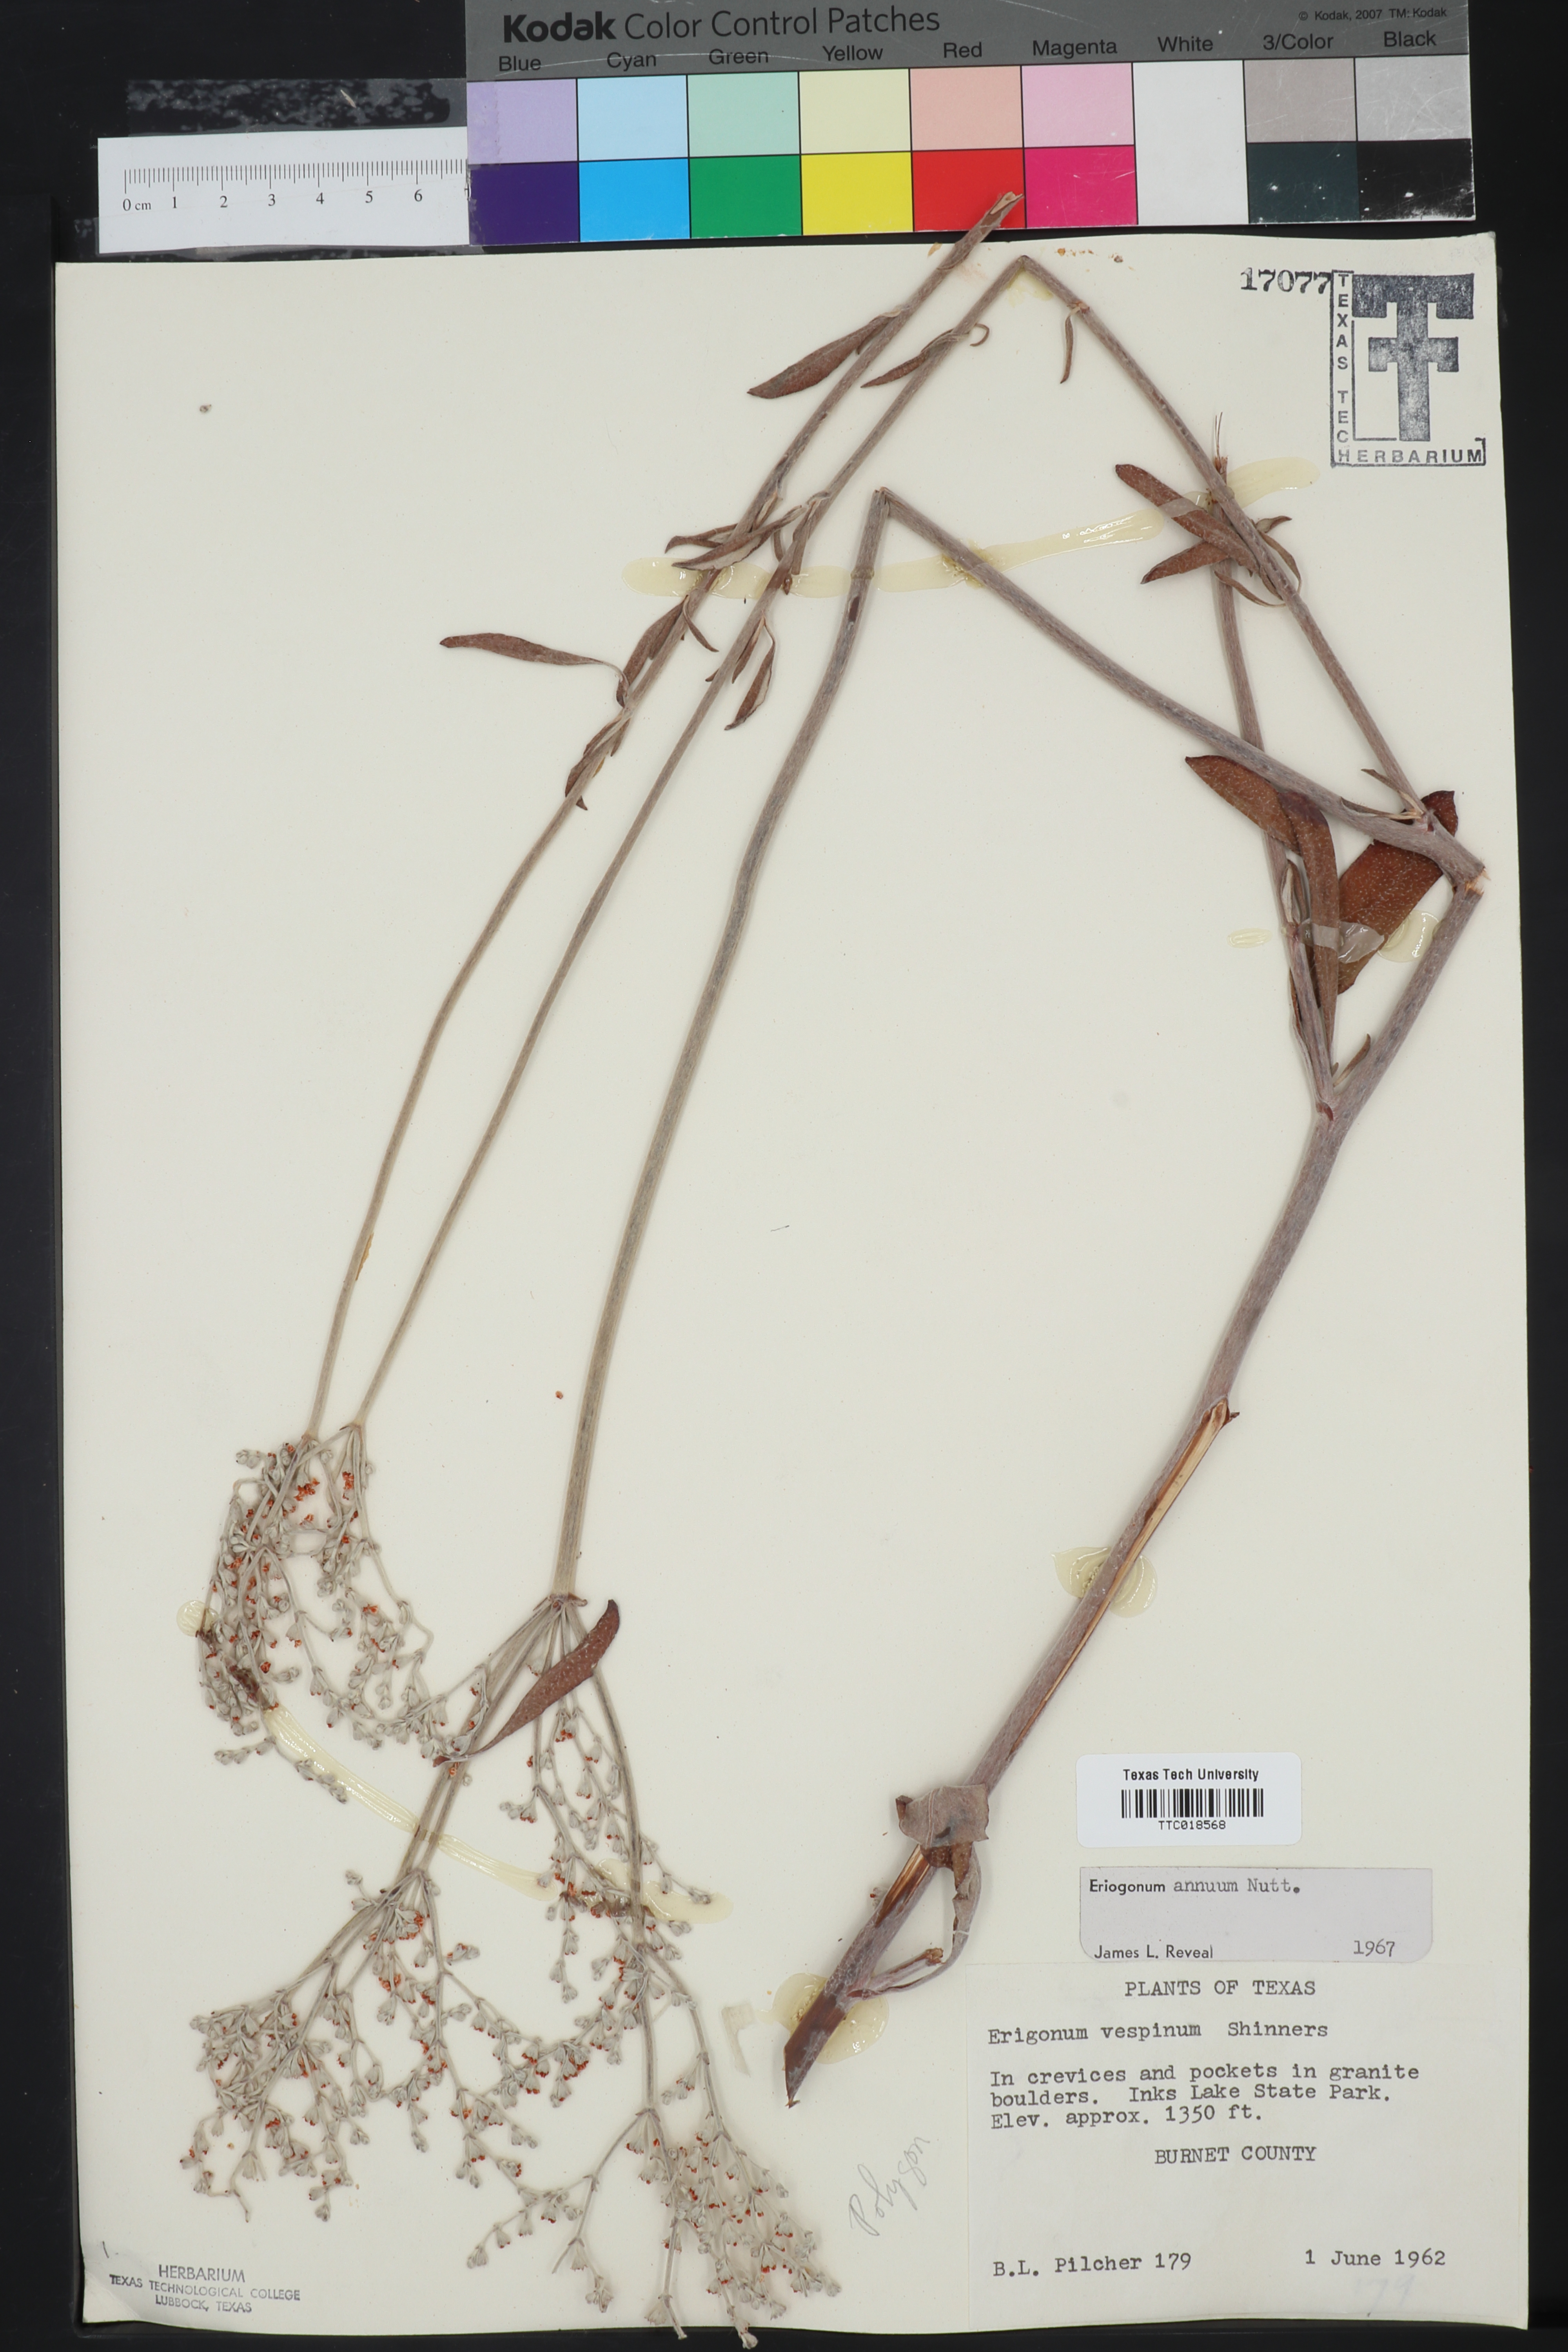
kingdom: Plantae
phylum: Tracheophyta
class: Magnoliopsida
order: Caryophyllales
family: Polygonaceae
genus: Eriogonum
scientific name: Eriogonum annuum
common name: Annual wild buckwheat
